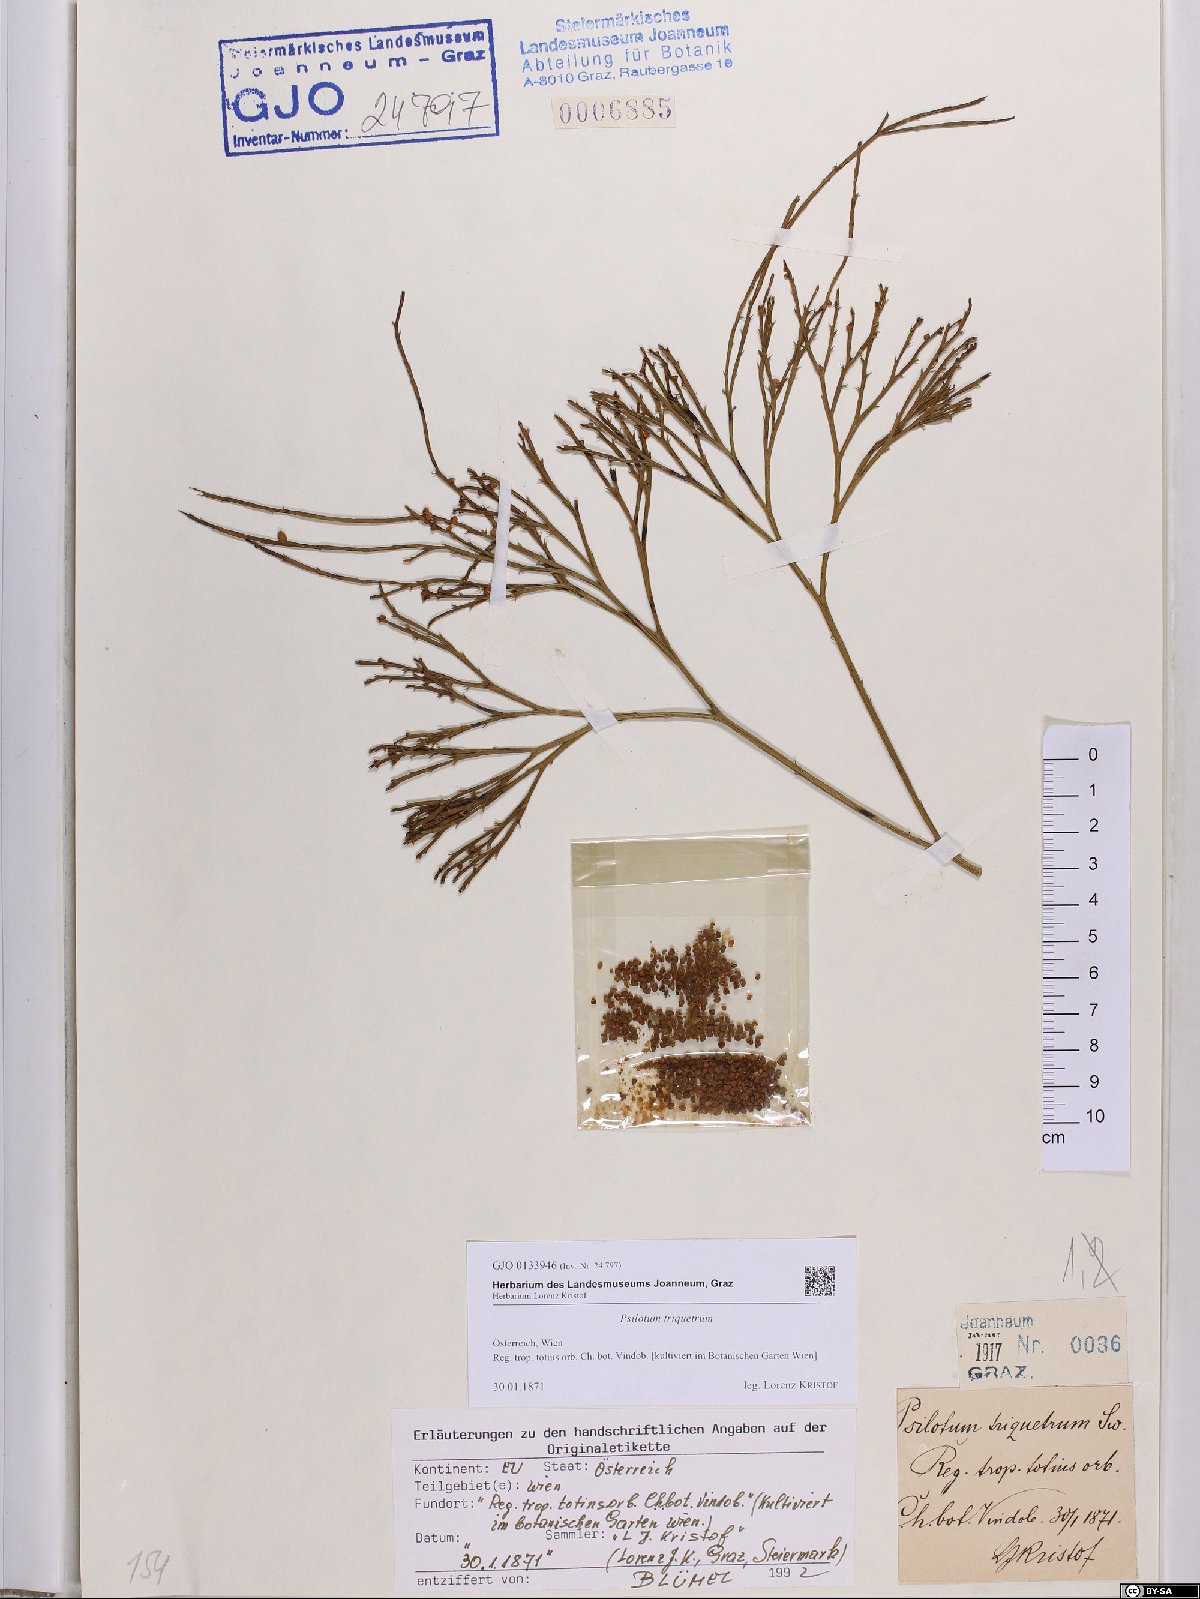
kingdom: Plantae
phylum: Tracheophyta
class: Polypodiopsida
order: Psilotales
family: Psilotaceae
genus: Psilotum
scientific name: Psilotum nudum
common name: Skeleton fork fern
